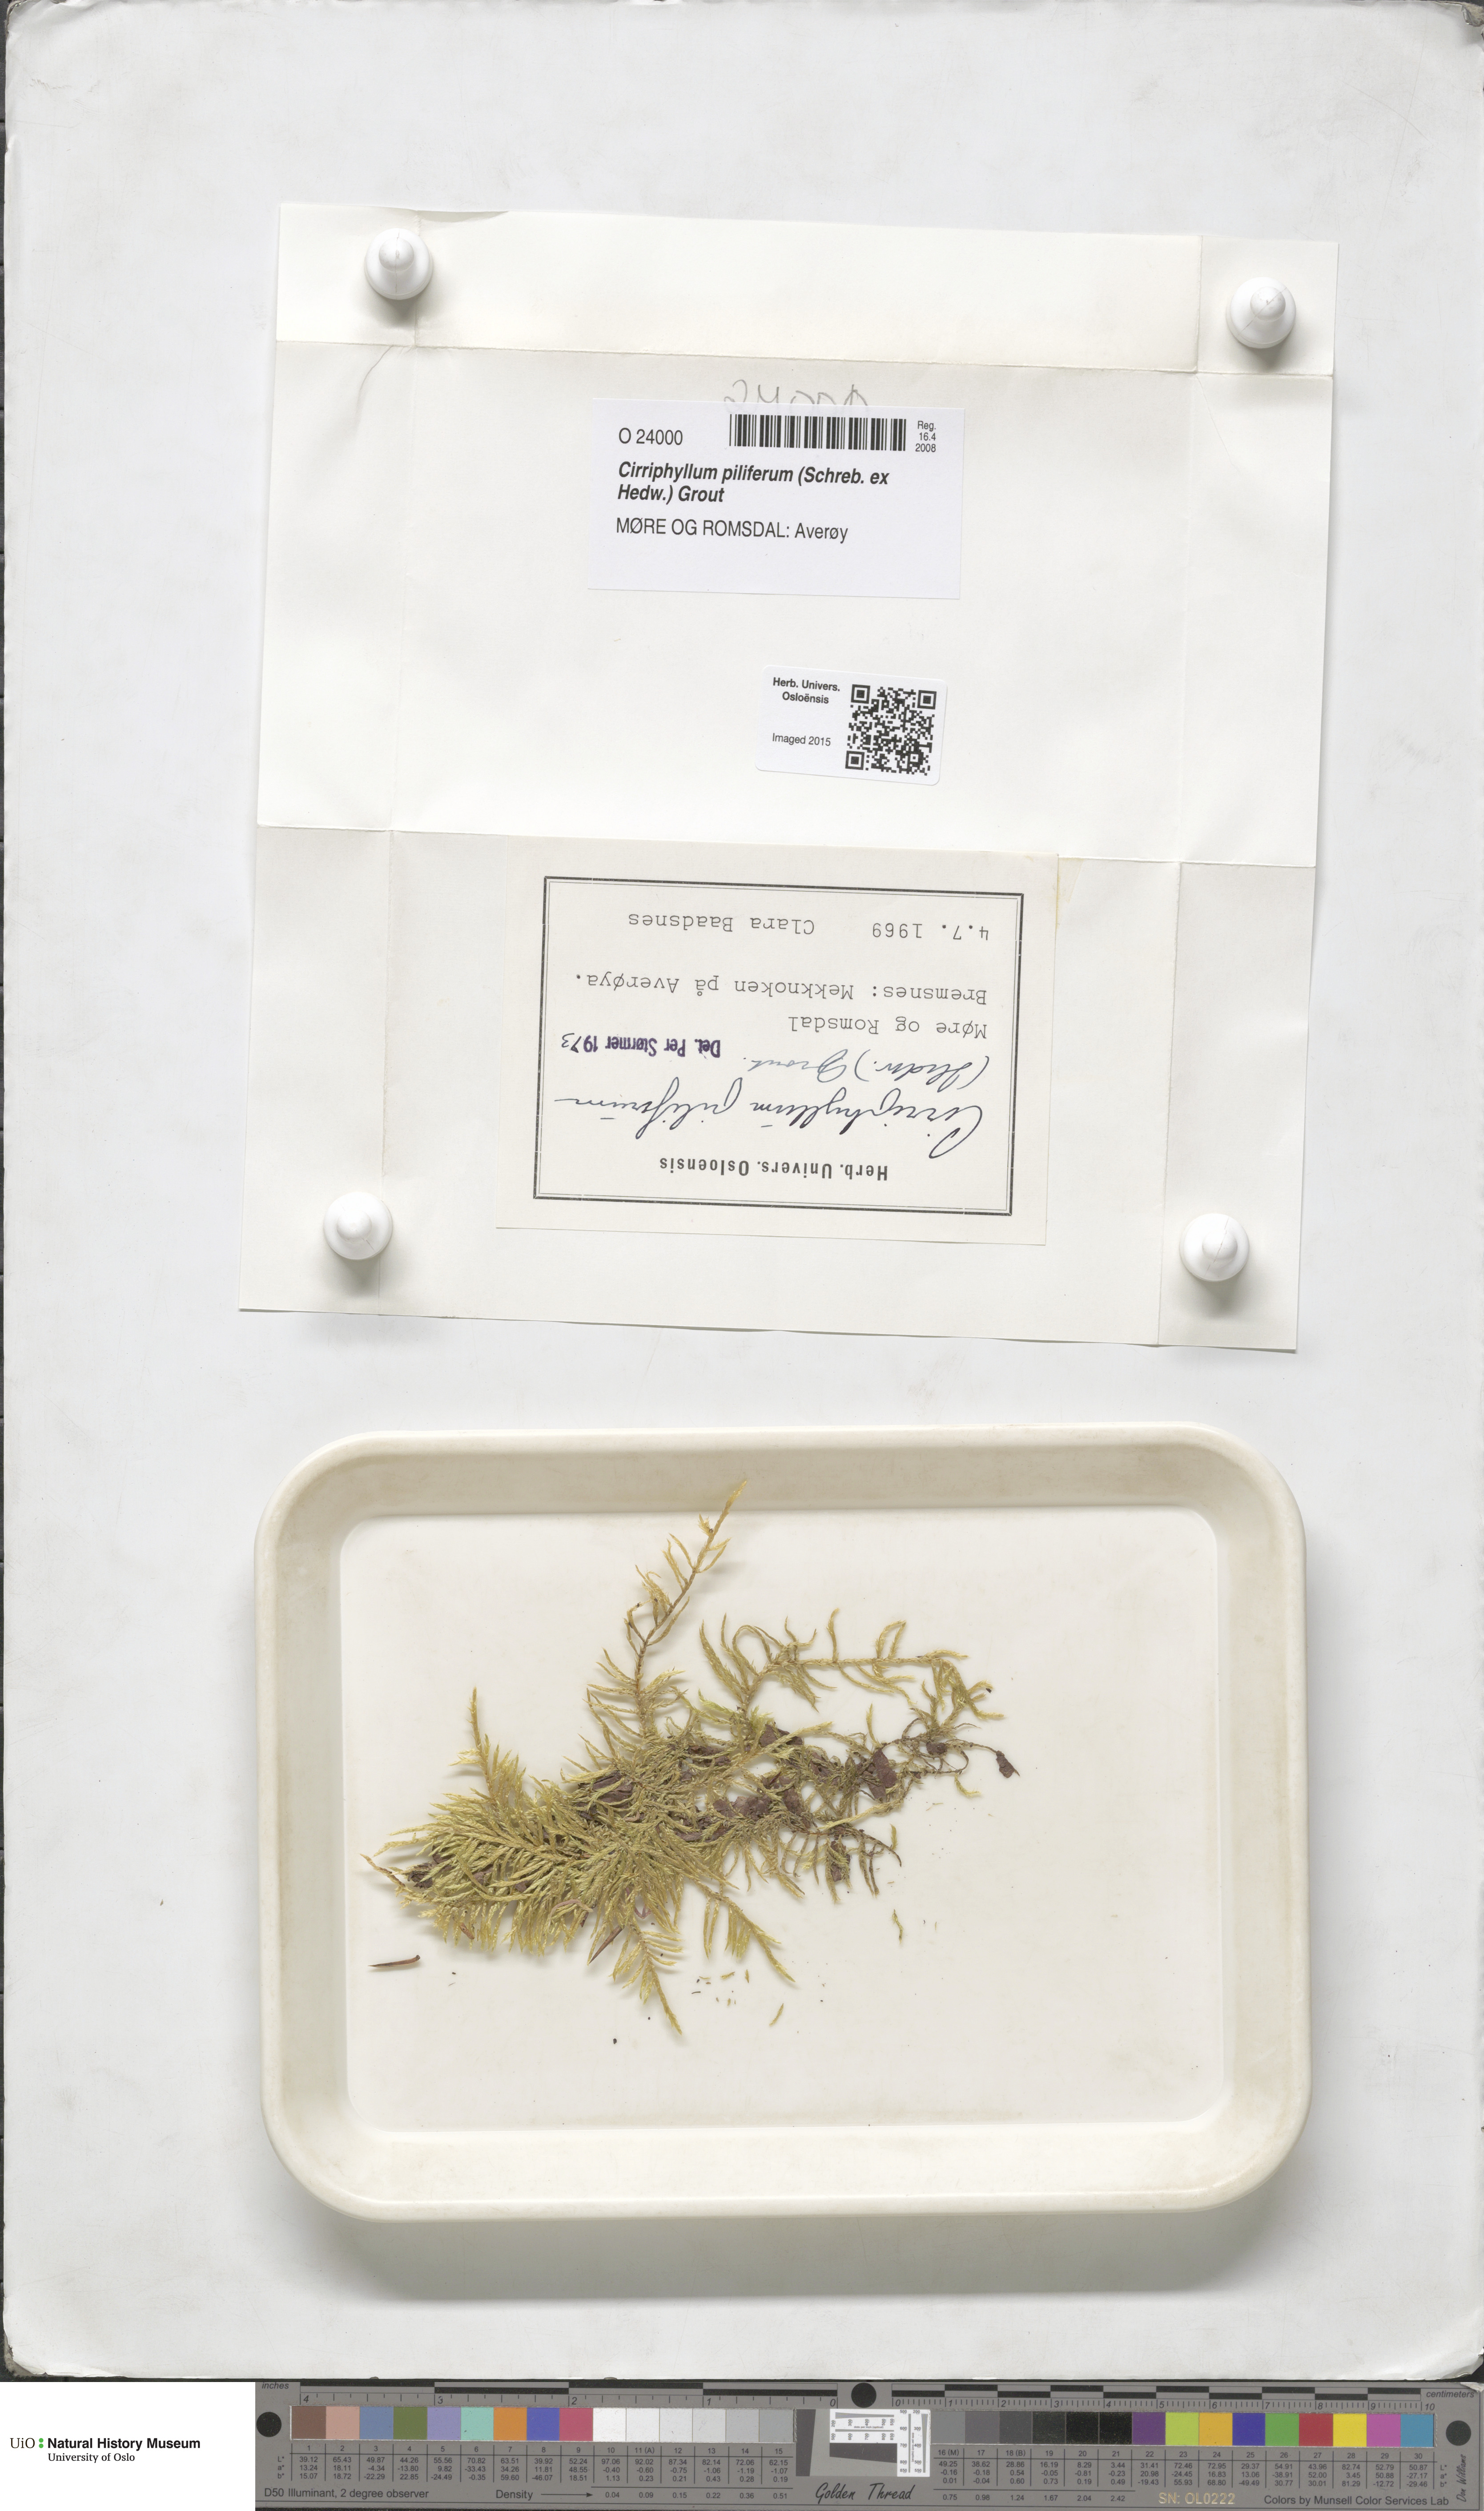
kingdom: Plantae
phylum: Bryophyta
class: Bryopsida
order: Hypnales
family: Brachytheciaceae
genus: Cirriphyllum
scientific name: Cirriphyllum piliferum
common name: Hair-pointed moss
